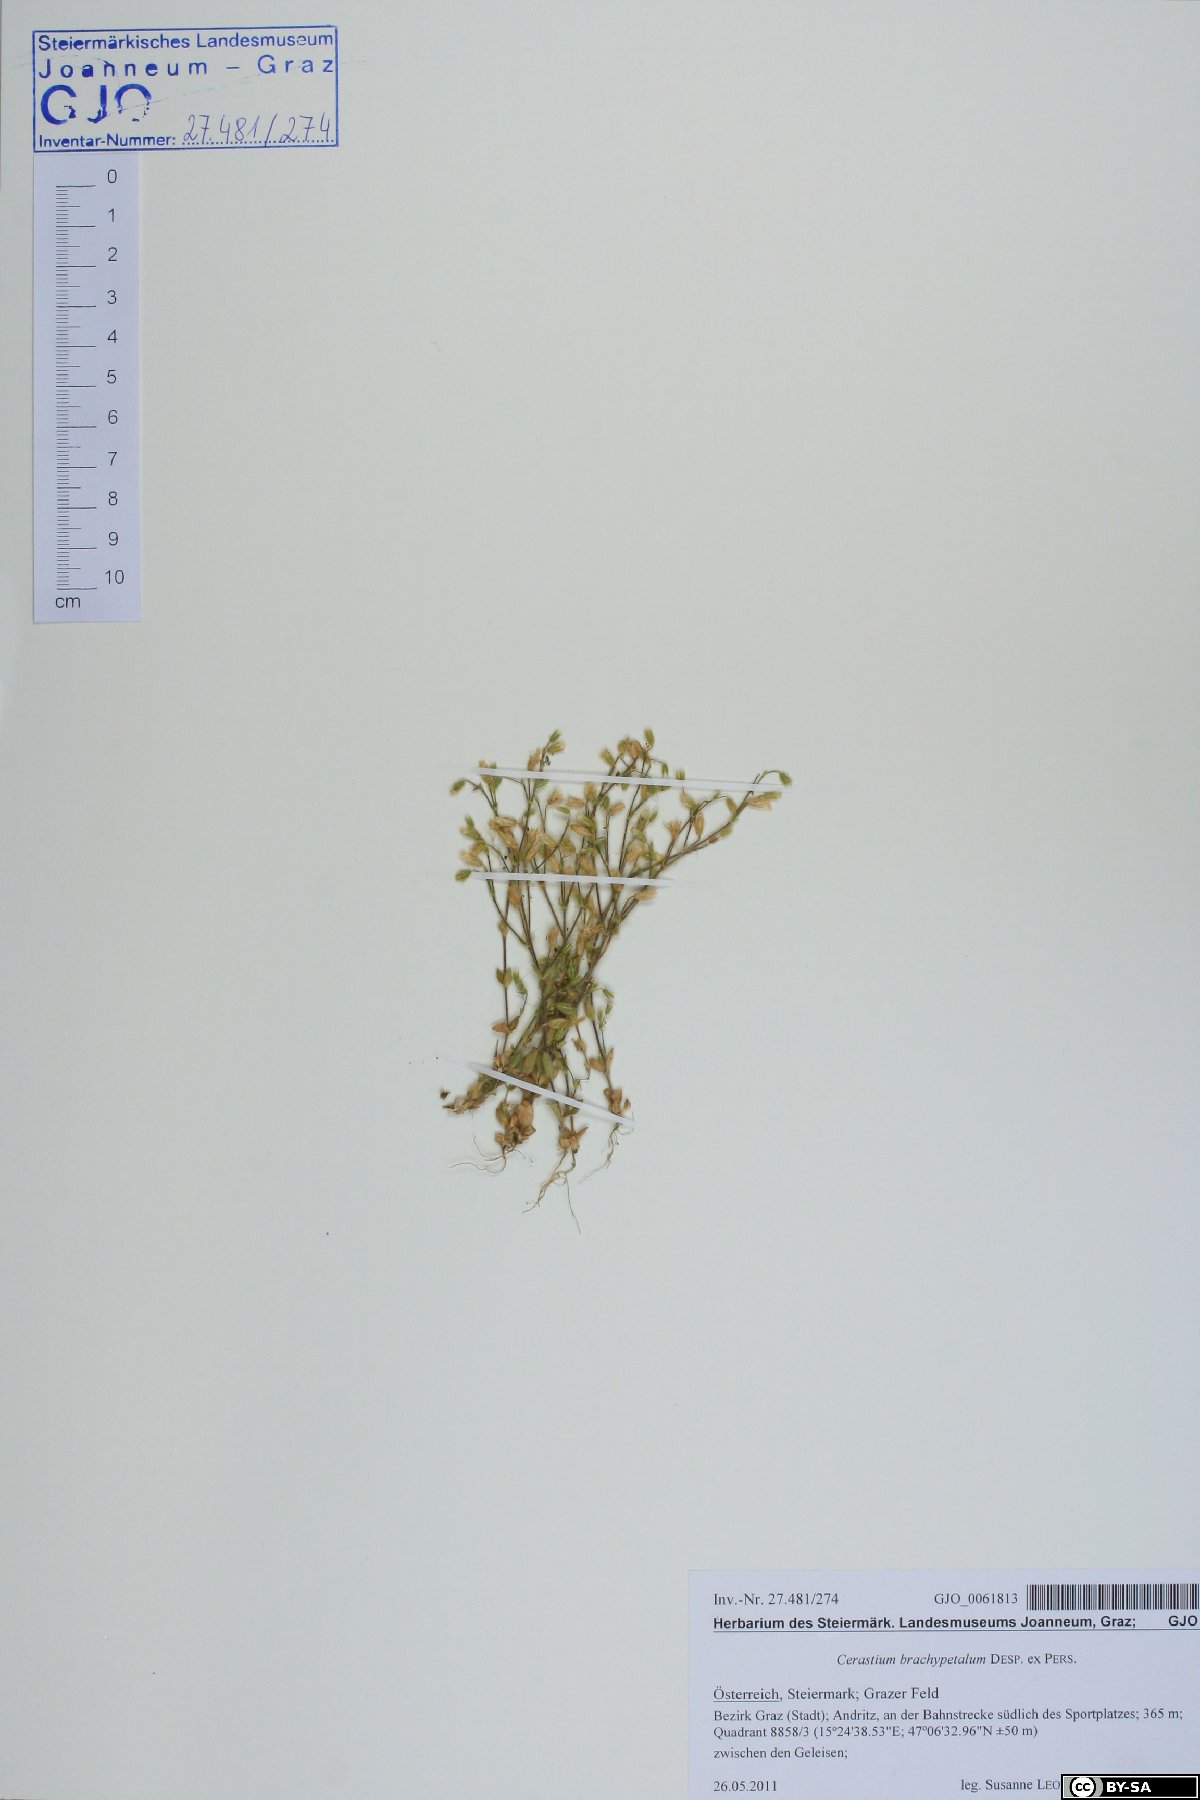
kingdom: Plantae
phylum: Tracheophyta
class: Magnoliopsida
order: Caryophyllales
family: Caryophyllaceae
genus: Cerastium
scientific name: Cerastium brachypetalum
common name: Grey mouse-ear
